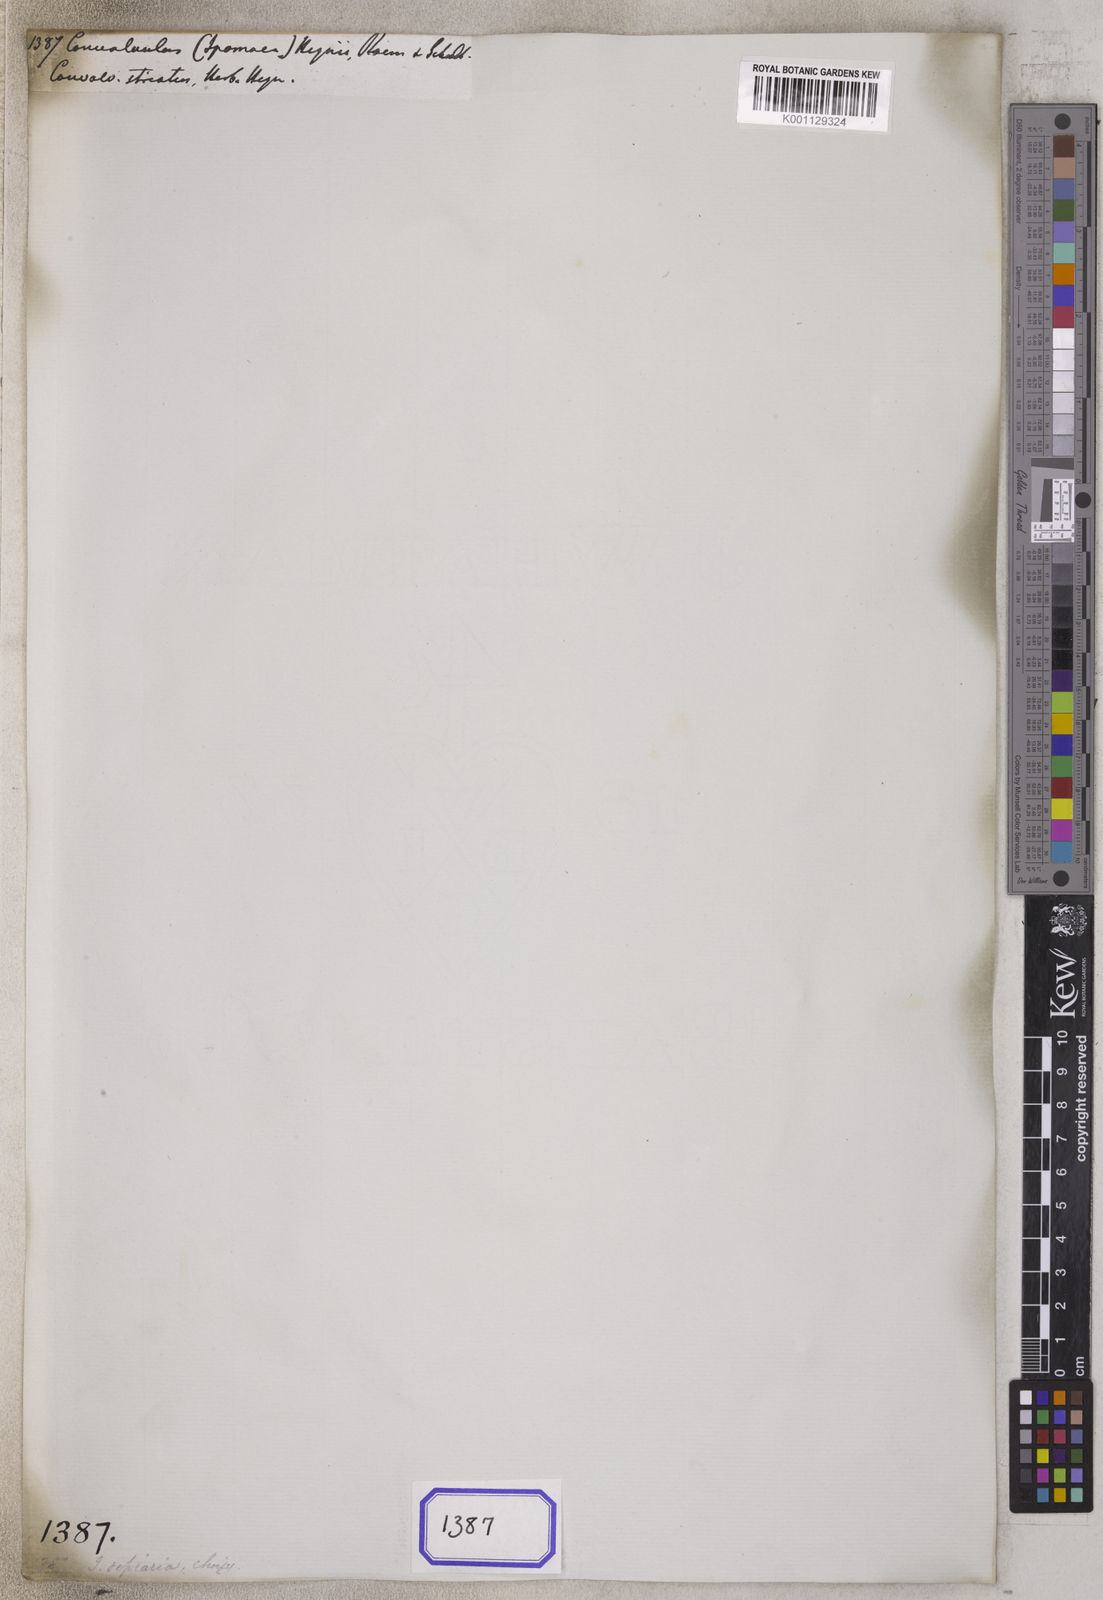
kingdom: Plantae
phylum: Tracheophyta
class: Magnoliopsida
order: Solanales
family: Convolvulaceae
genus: Rivea
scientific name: Rivea wightiana
